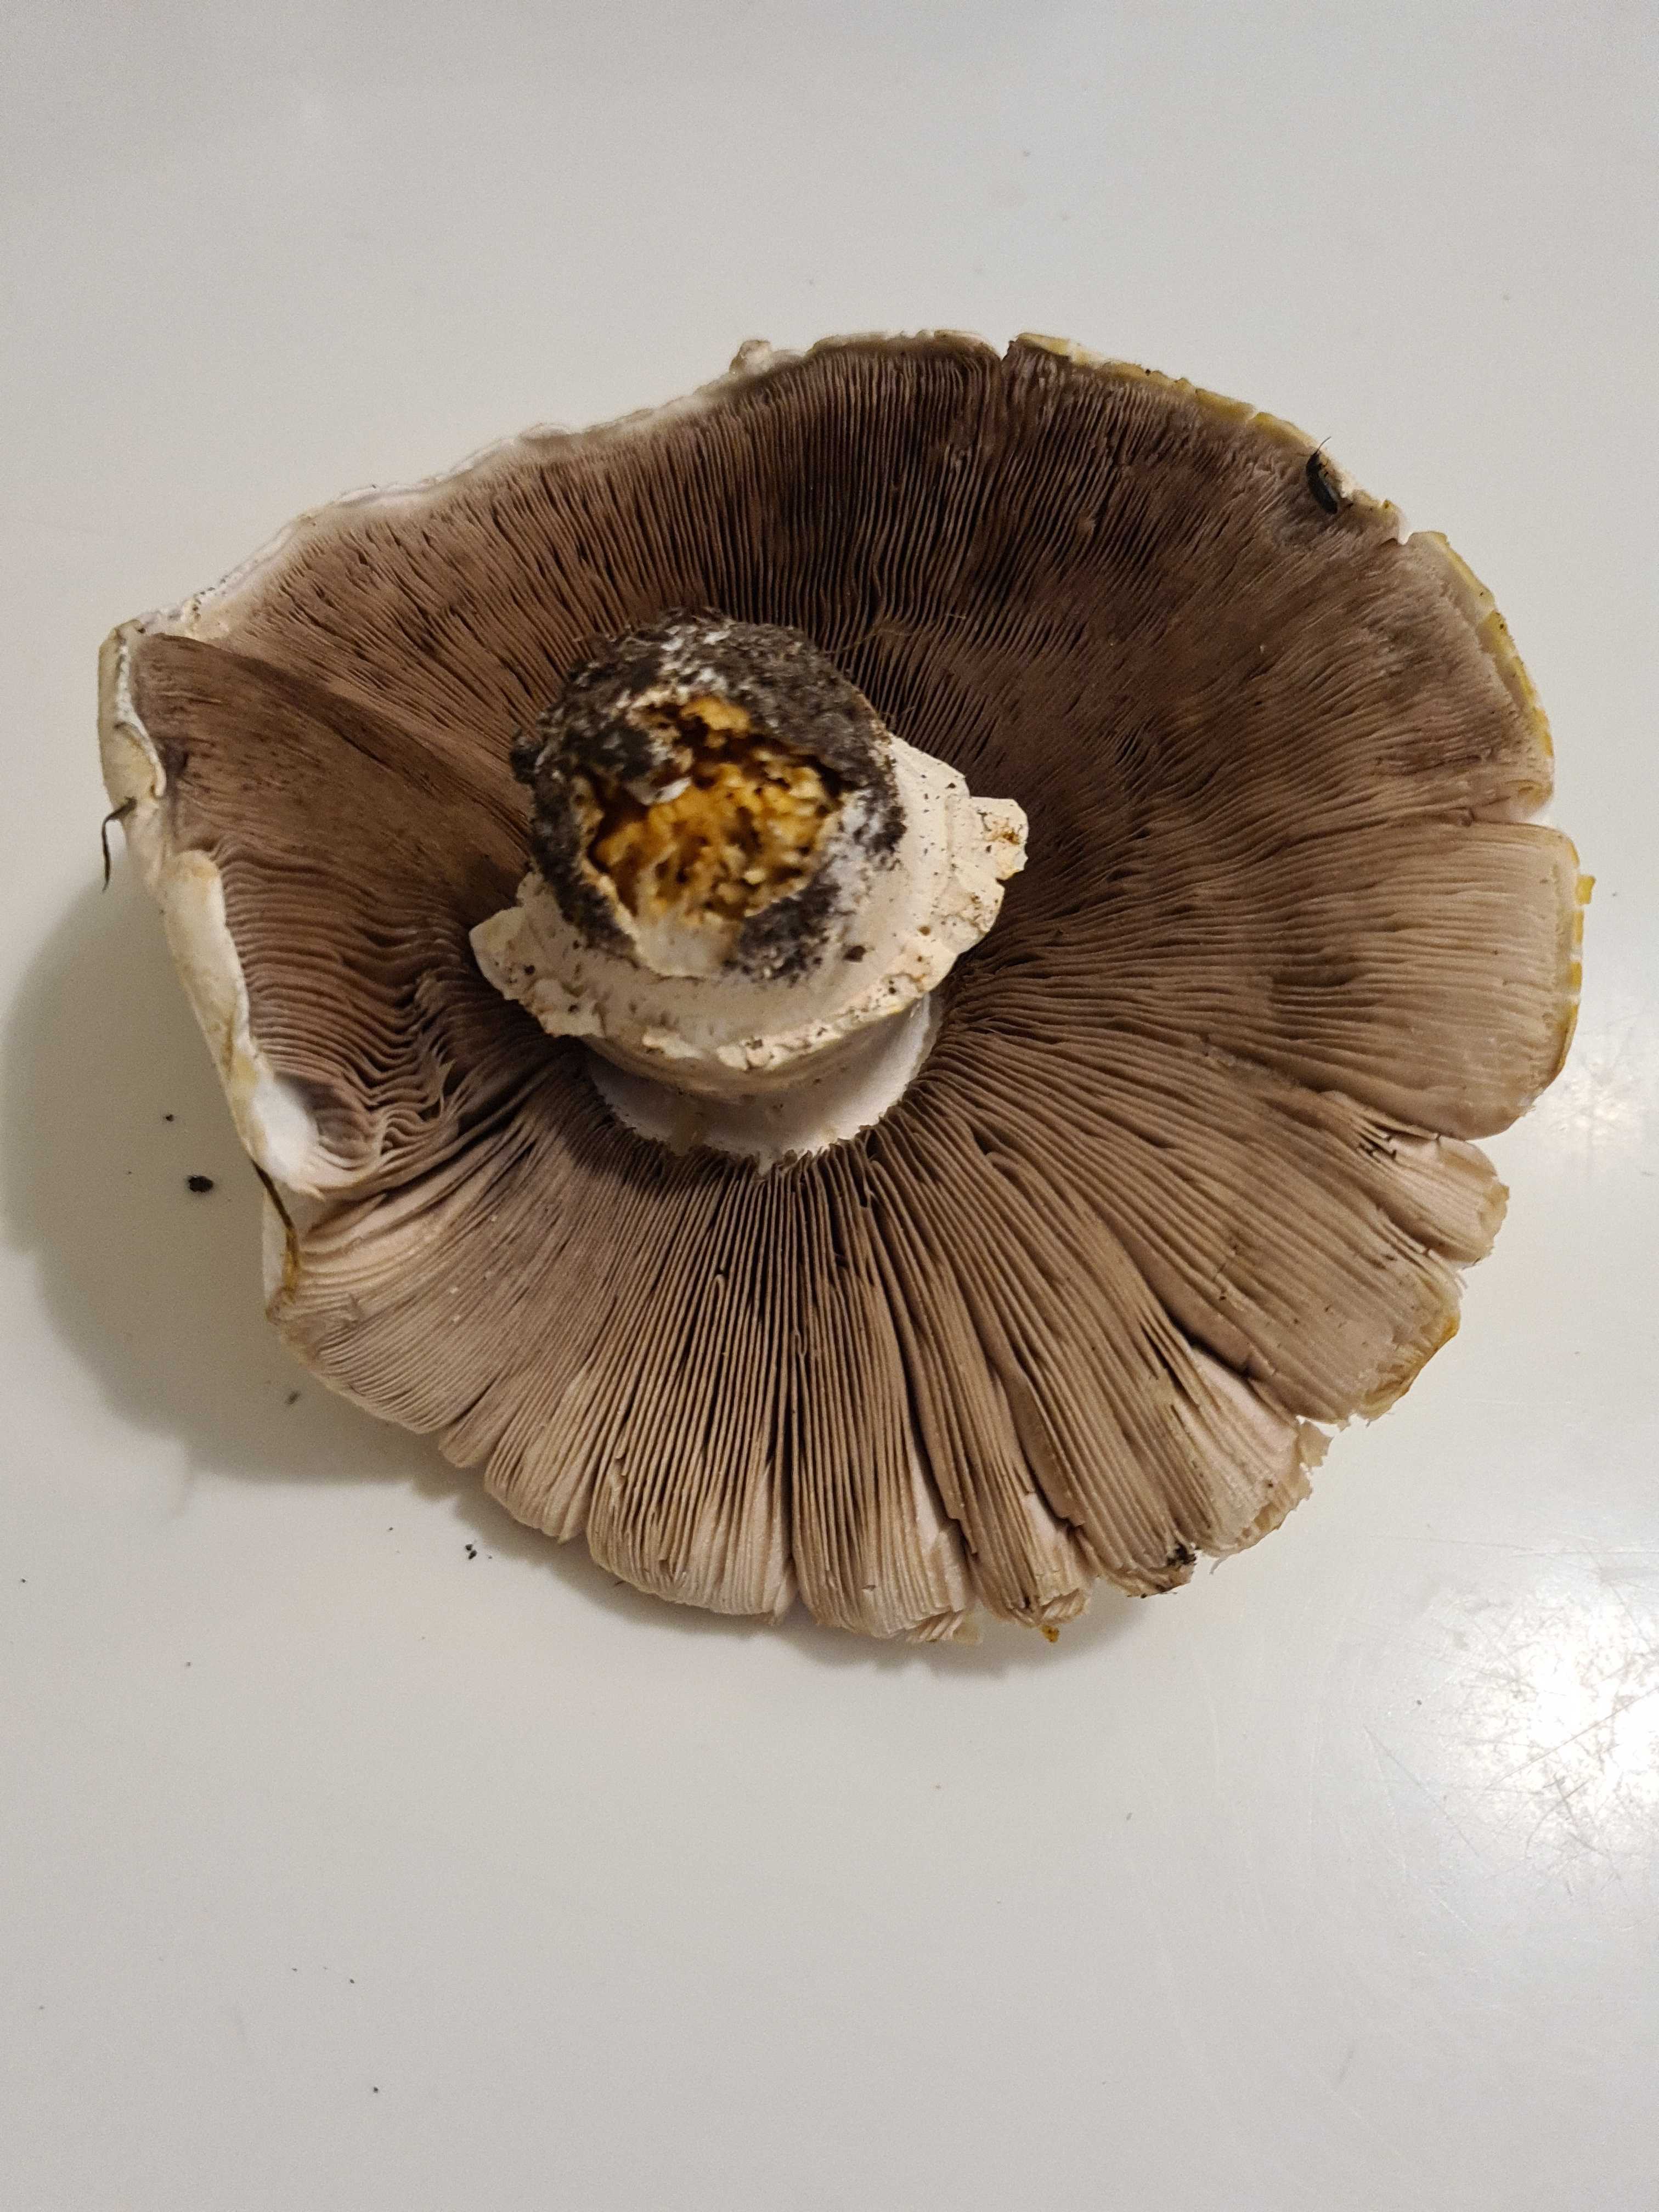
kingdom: Fungi
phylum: Basidiomycota
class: Agaricomycetes
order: Agaricales
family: Agaricaceae
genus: Agaricus
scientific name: Agaricus
